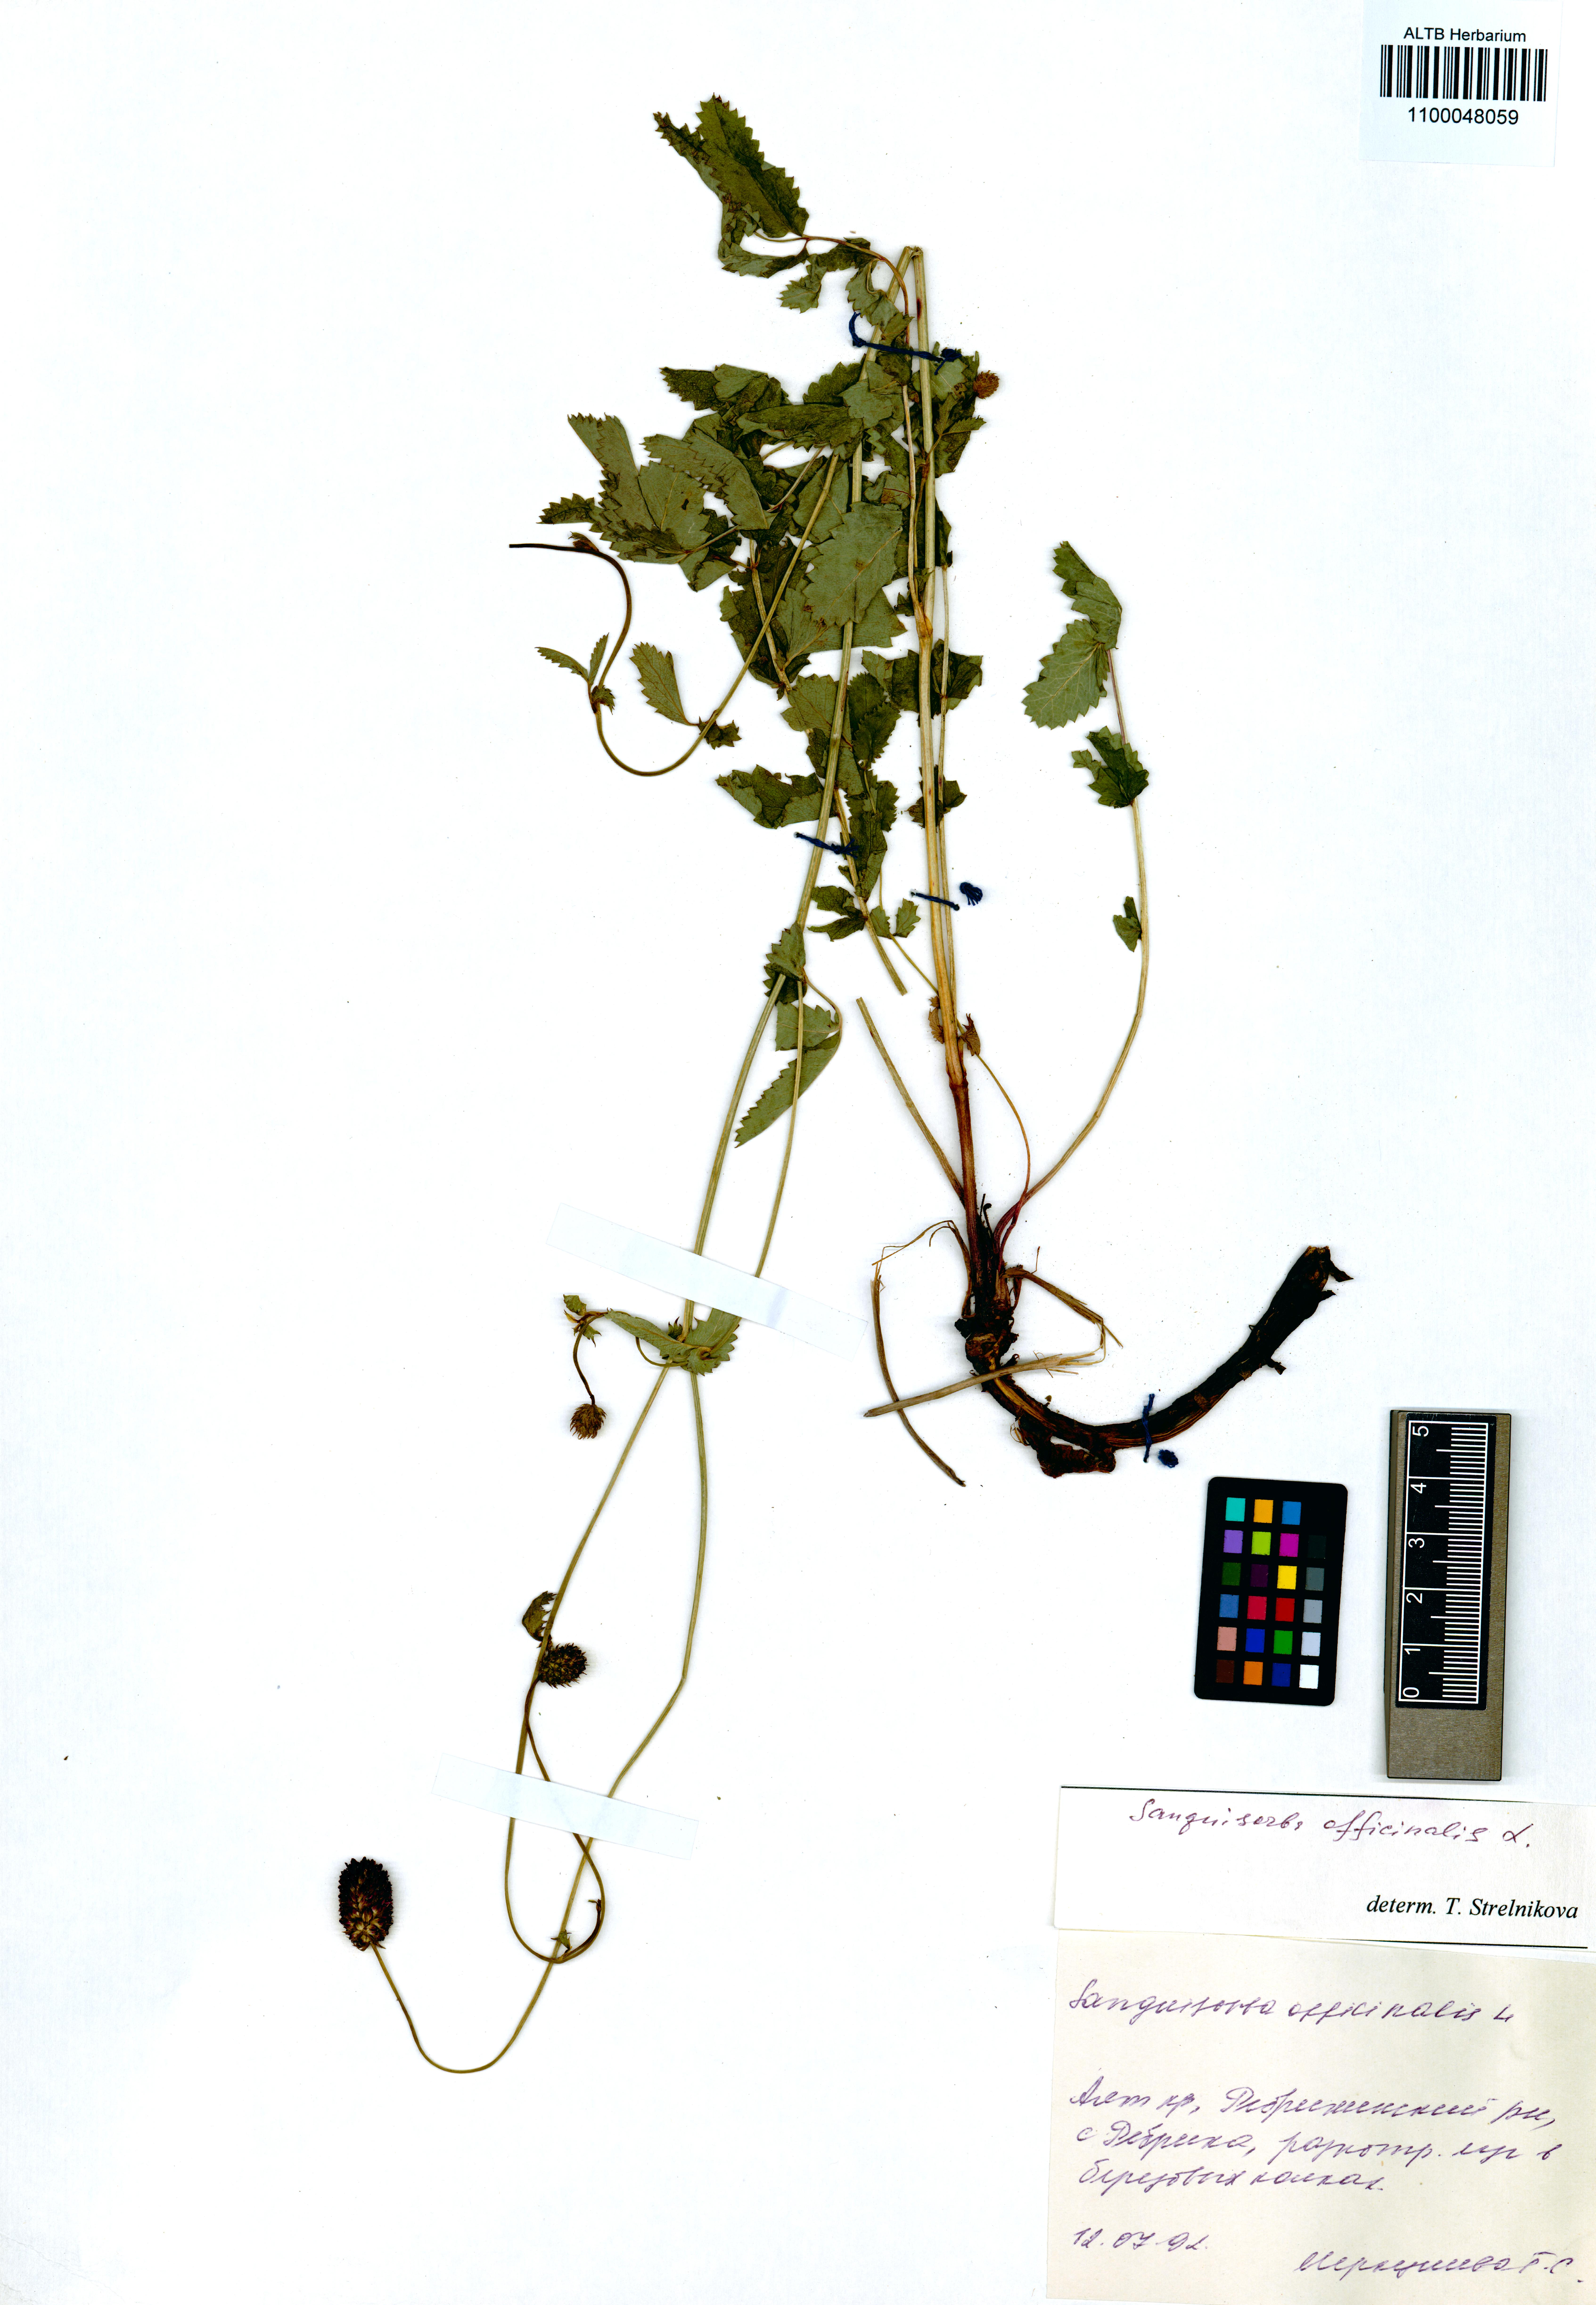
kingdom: Plantae
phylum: Tracheophyta
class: Magnoliopsida
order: Rosales
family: Rosaceae
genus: Sanguisorba
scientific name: Sanguisorba officinalis
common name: Great burnet
